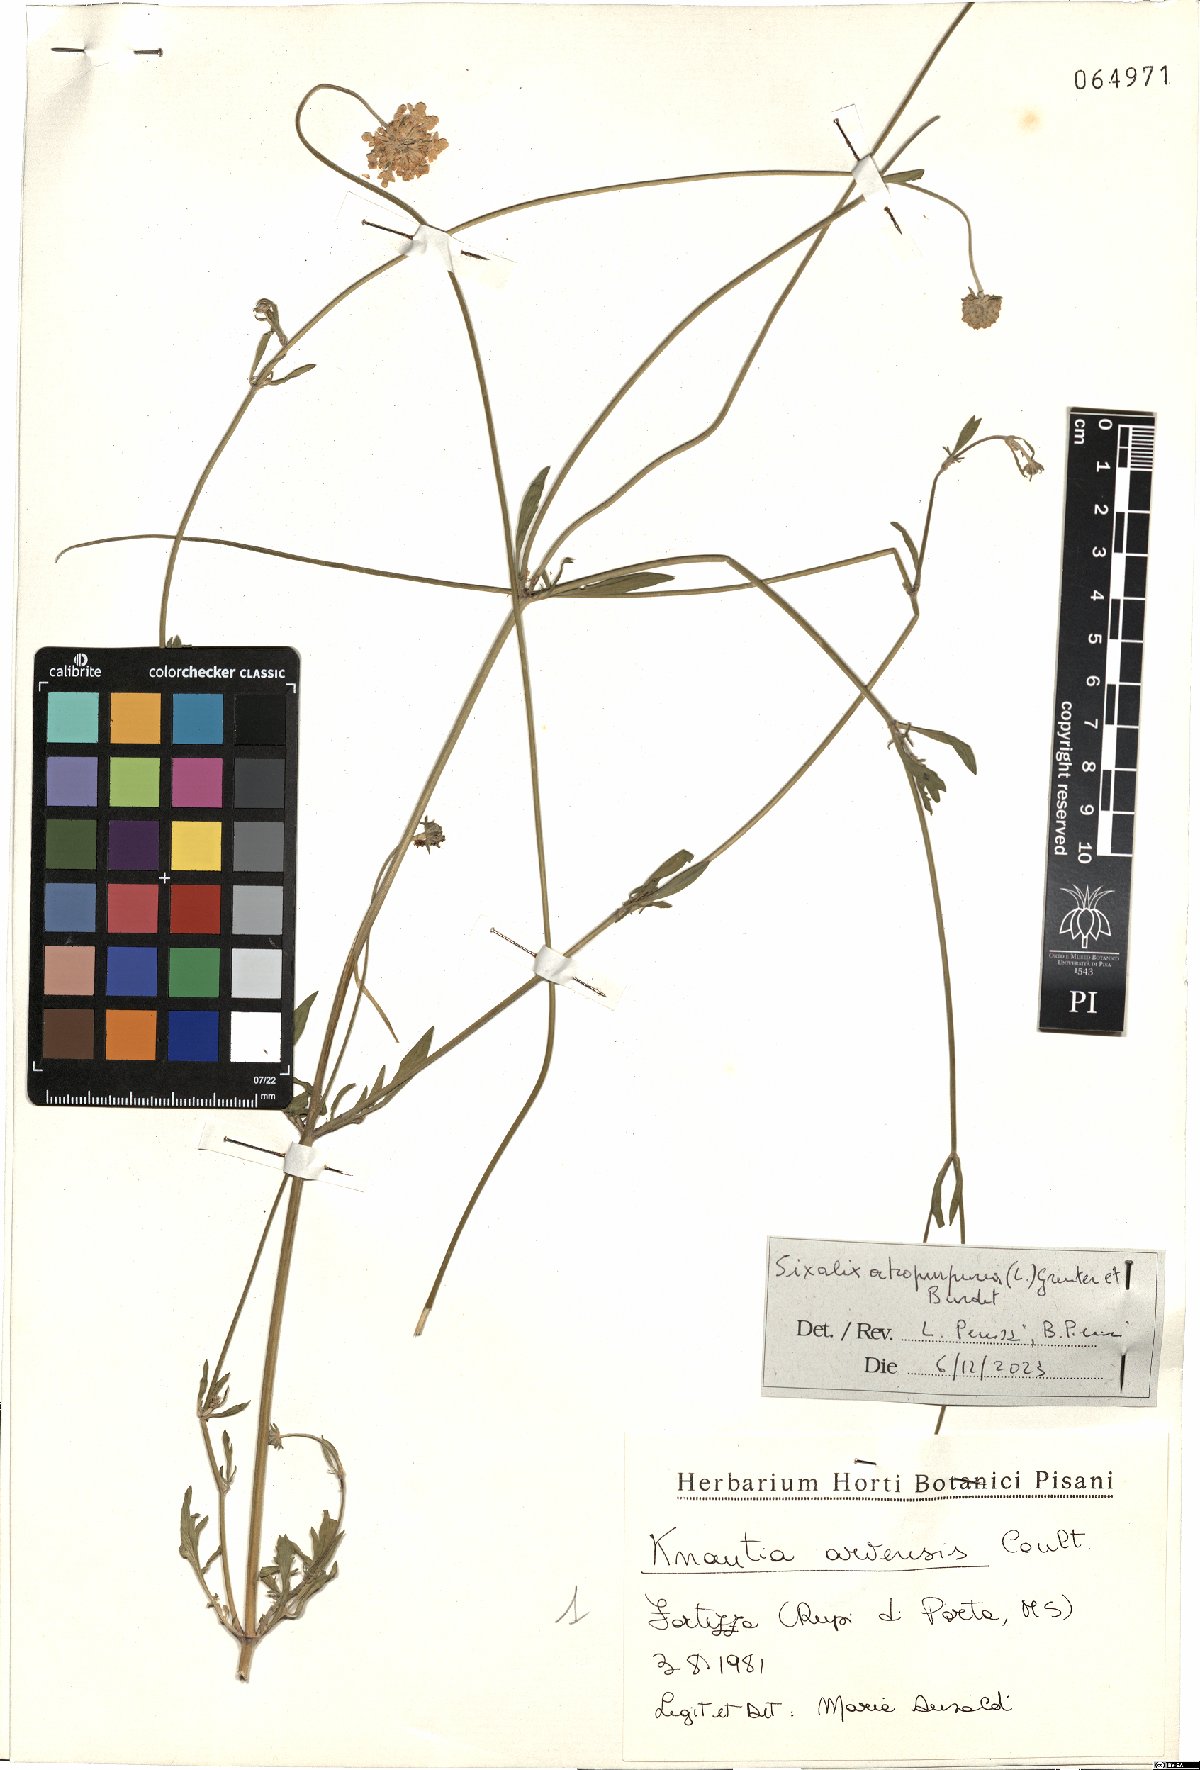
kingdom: Plantae
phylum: Tracheophyta
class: Magnoliopsida
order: Dipsacales
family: Caprifoliaceae
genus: Sixalix
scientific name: Sixalix atropurpurea
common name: Sweet scabious
